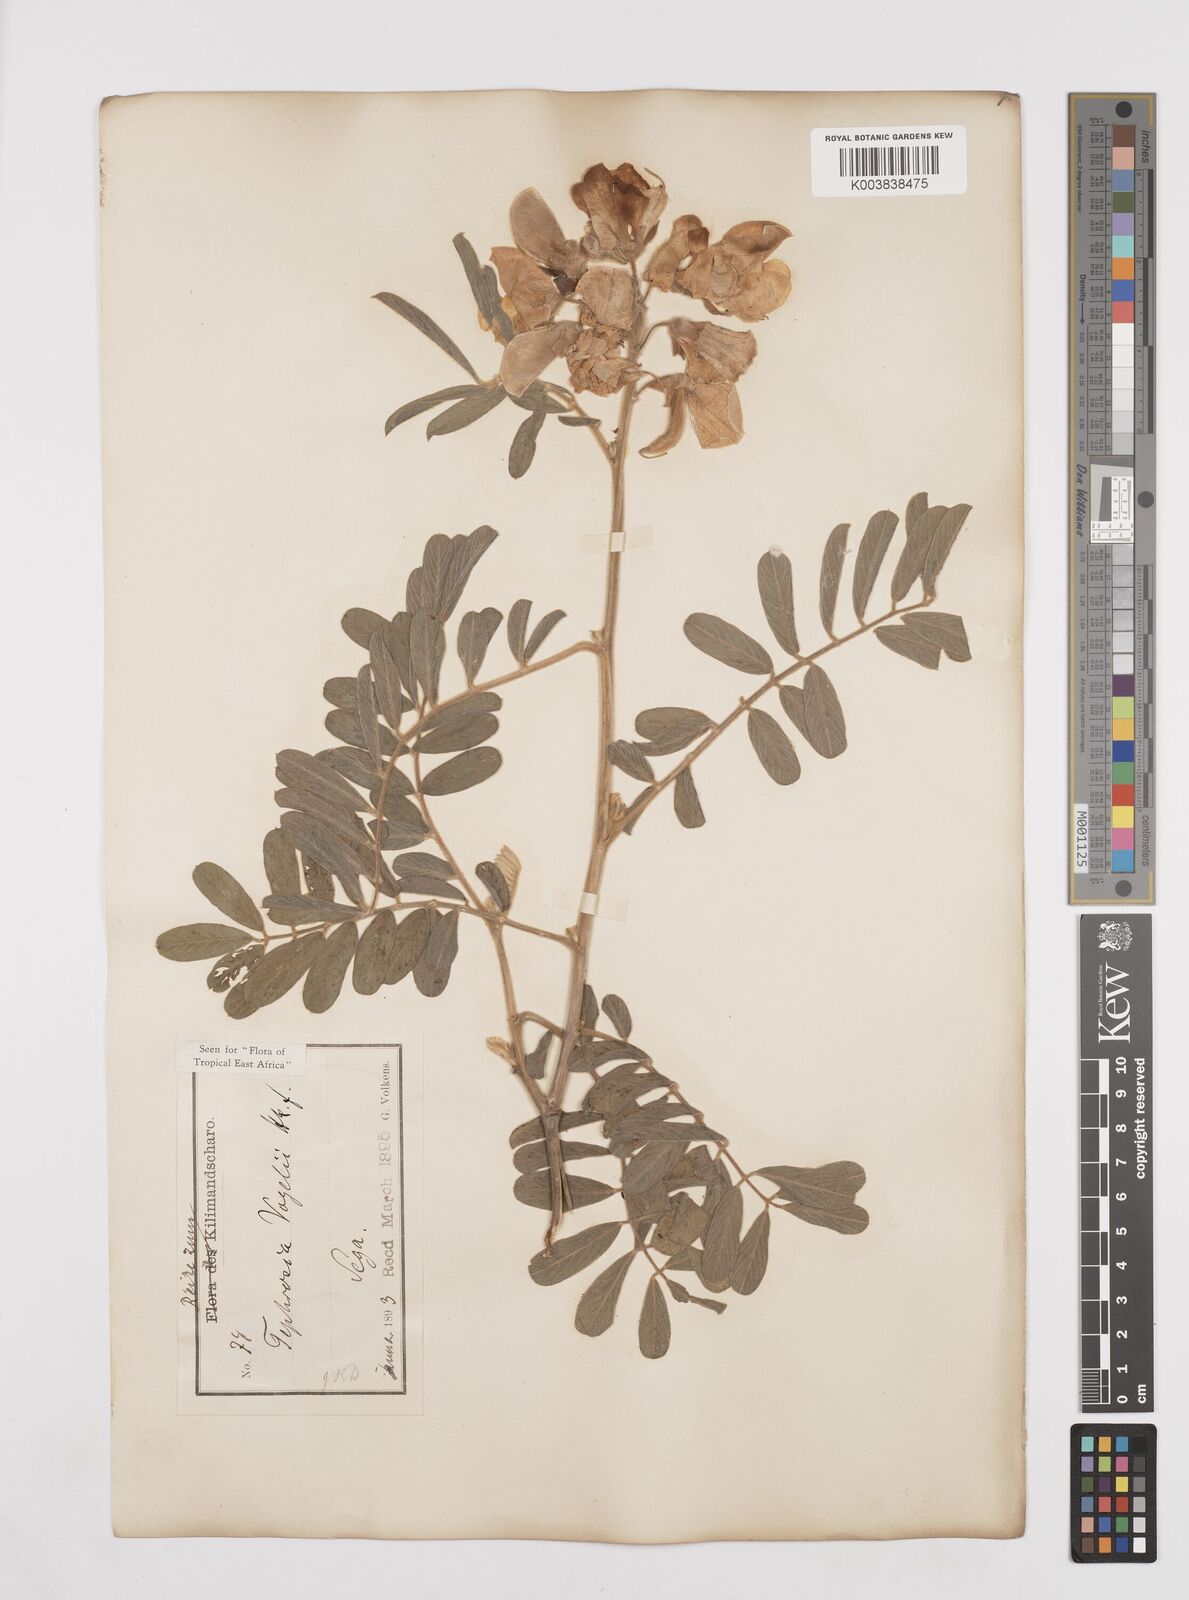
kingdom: Plantae
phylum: Tracheophyta
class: Magnoliopsida
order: Fabales
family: Fabaceae
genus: Tephrosia
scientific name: Tephrosia vogelii
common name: Vogel tephrosia
